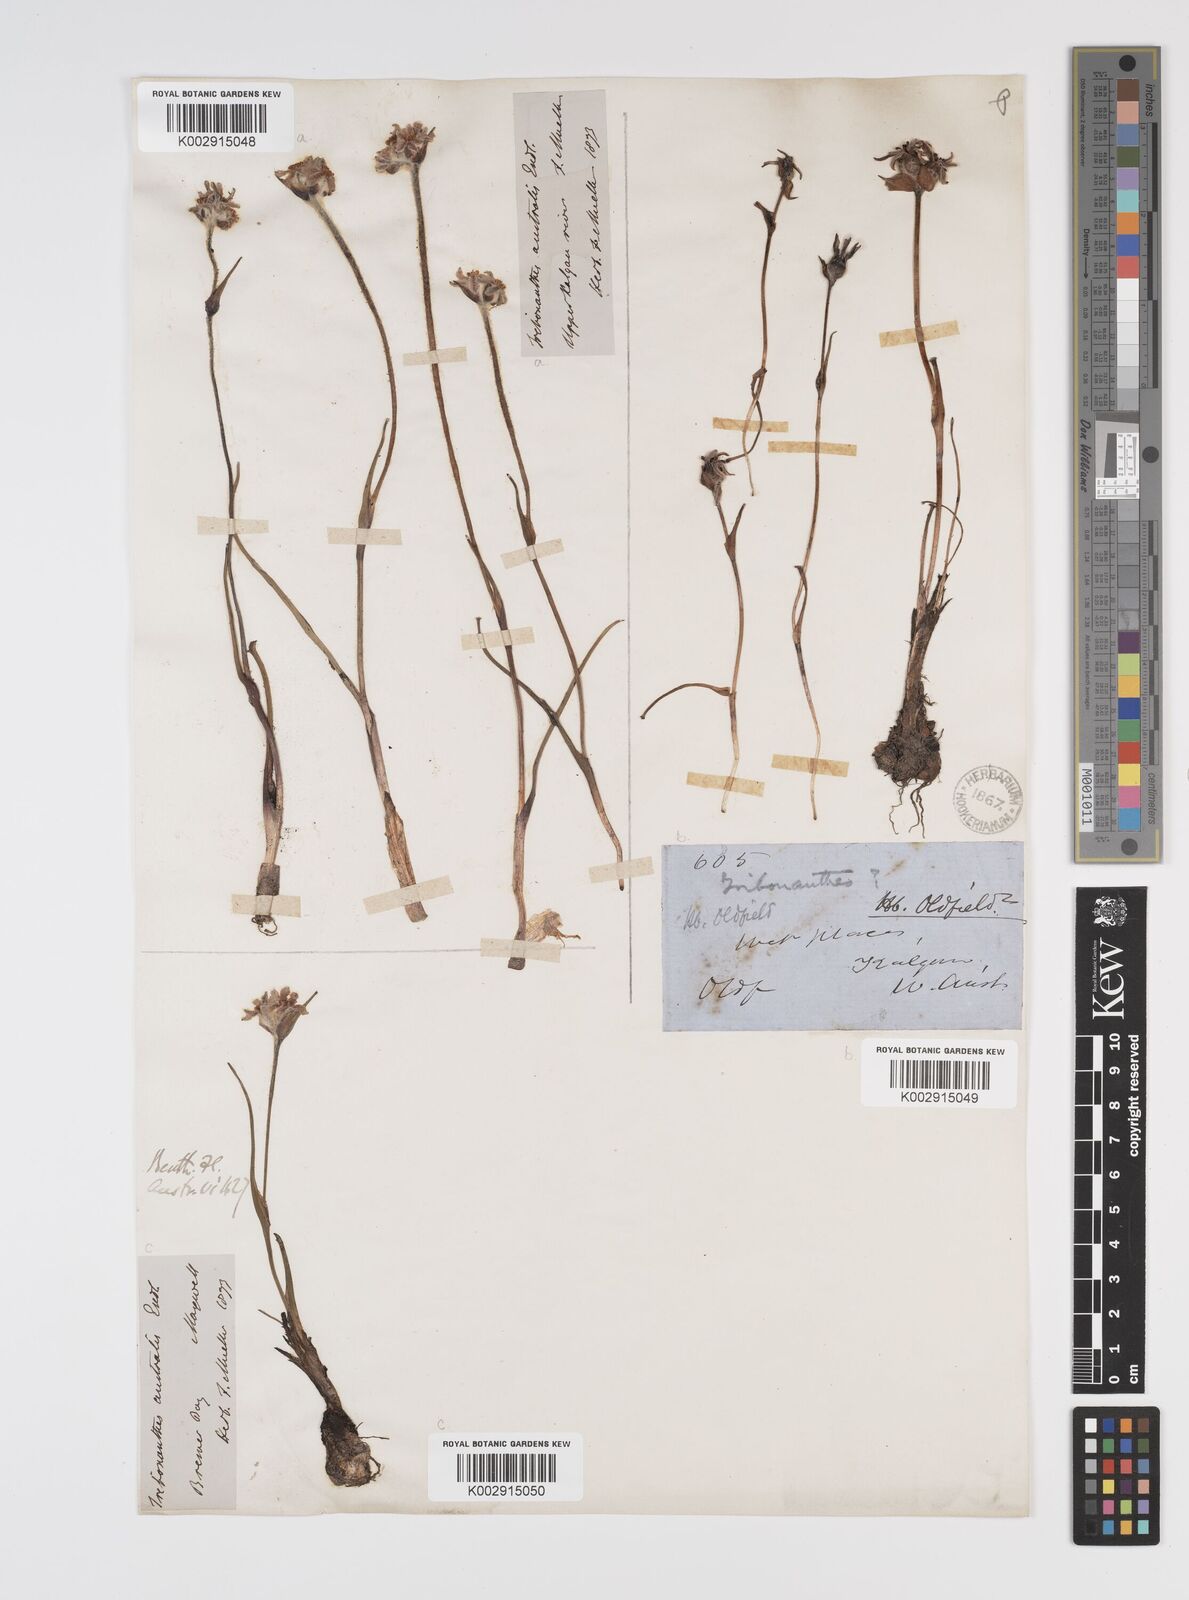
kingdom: Plantae
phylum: Tracheophyta
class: Liliopsida
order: Commelinales
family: Haemodoraceae
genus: Tribonanthes
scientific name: Tribonanthes australis
